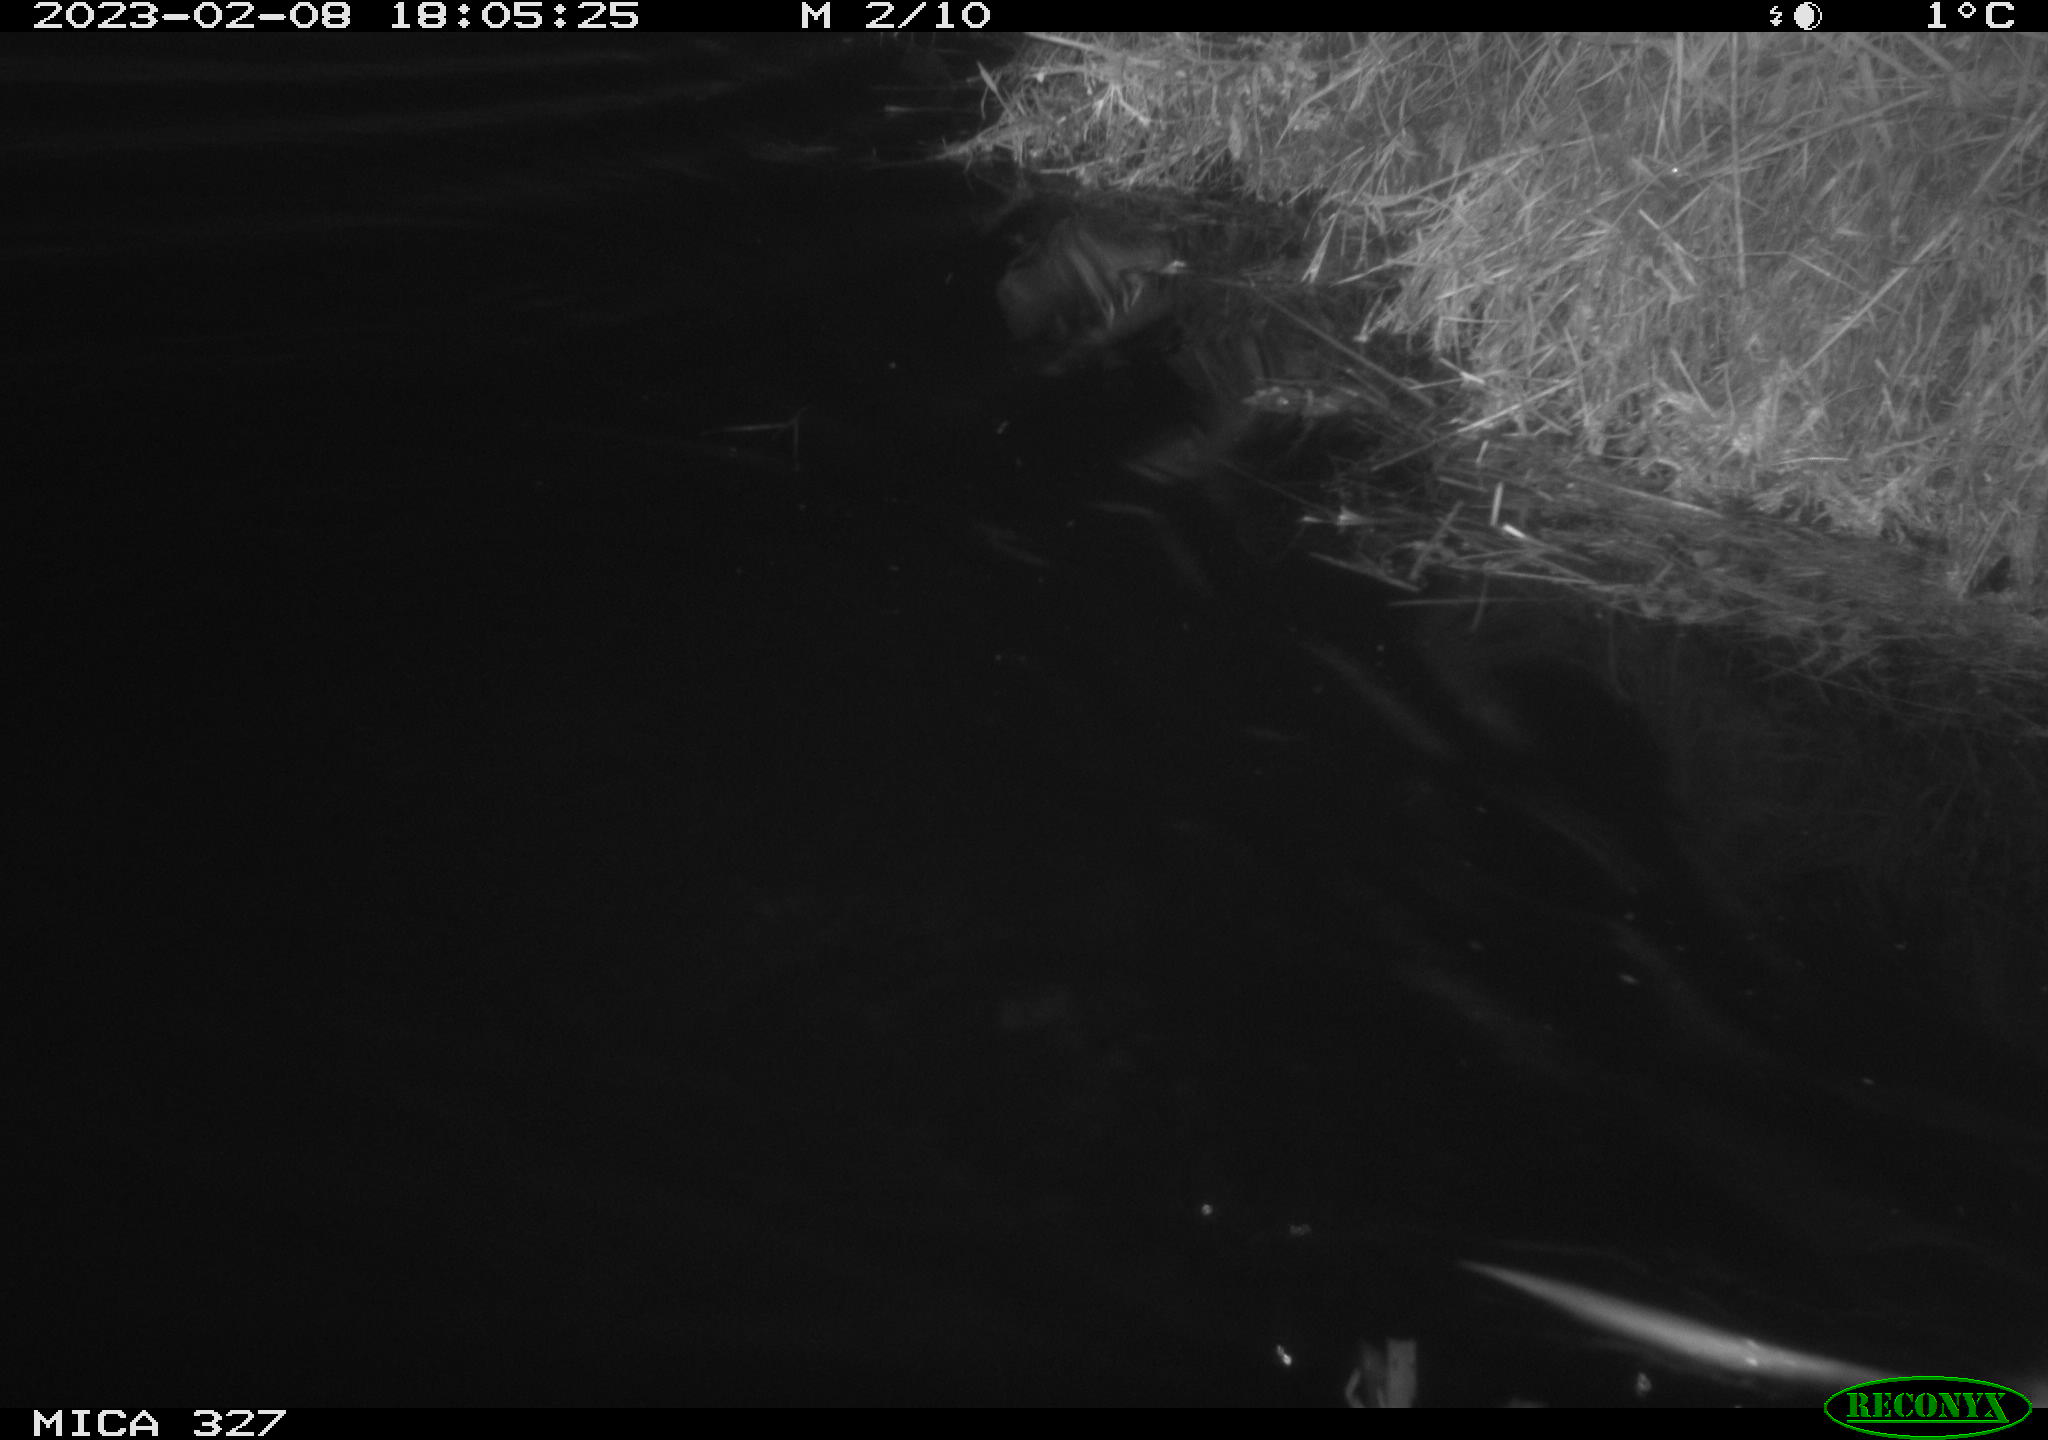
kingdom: Animalia
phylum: Chordata
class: Mammalia
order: Rodentia
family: Cricetidae
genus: Ondatra
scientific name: Ondatra zibethicus
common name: Muskrat
